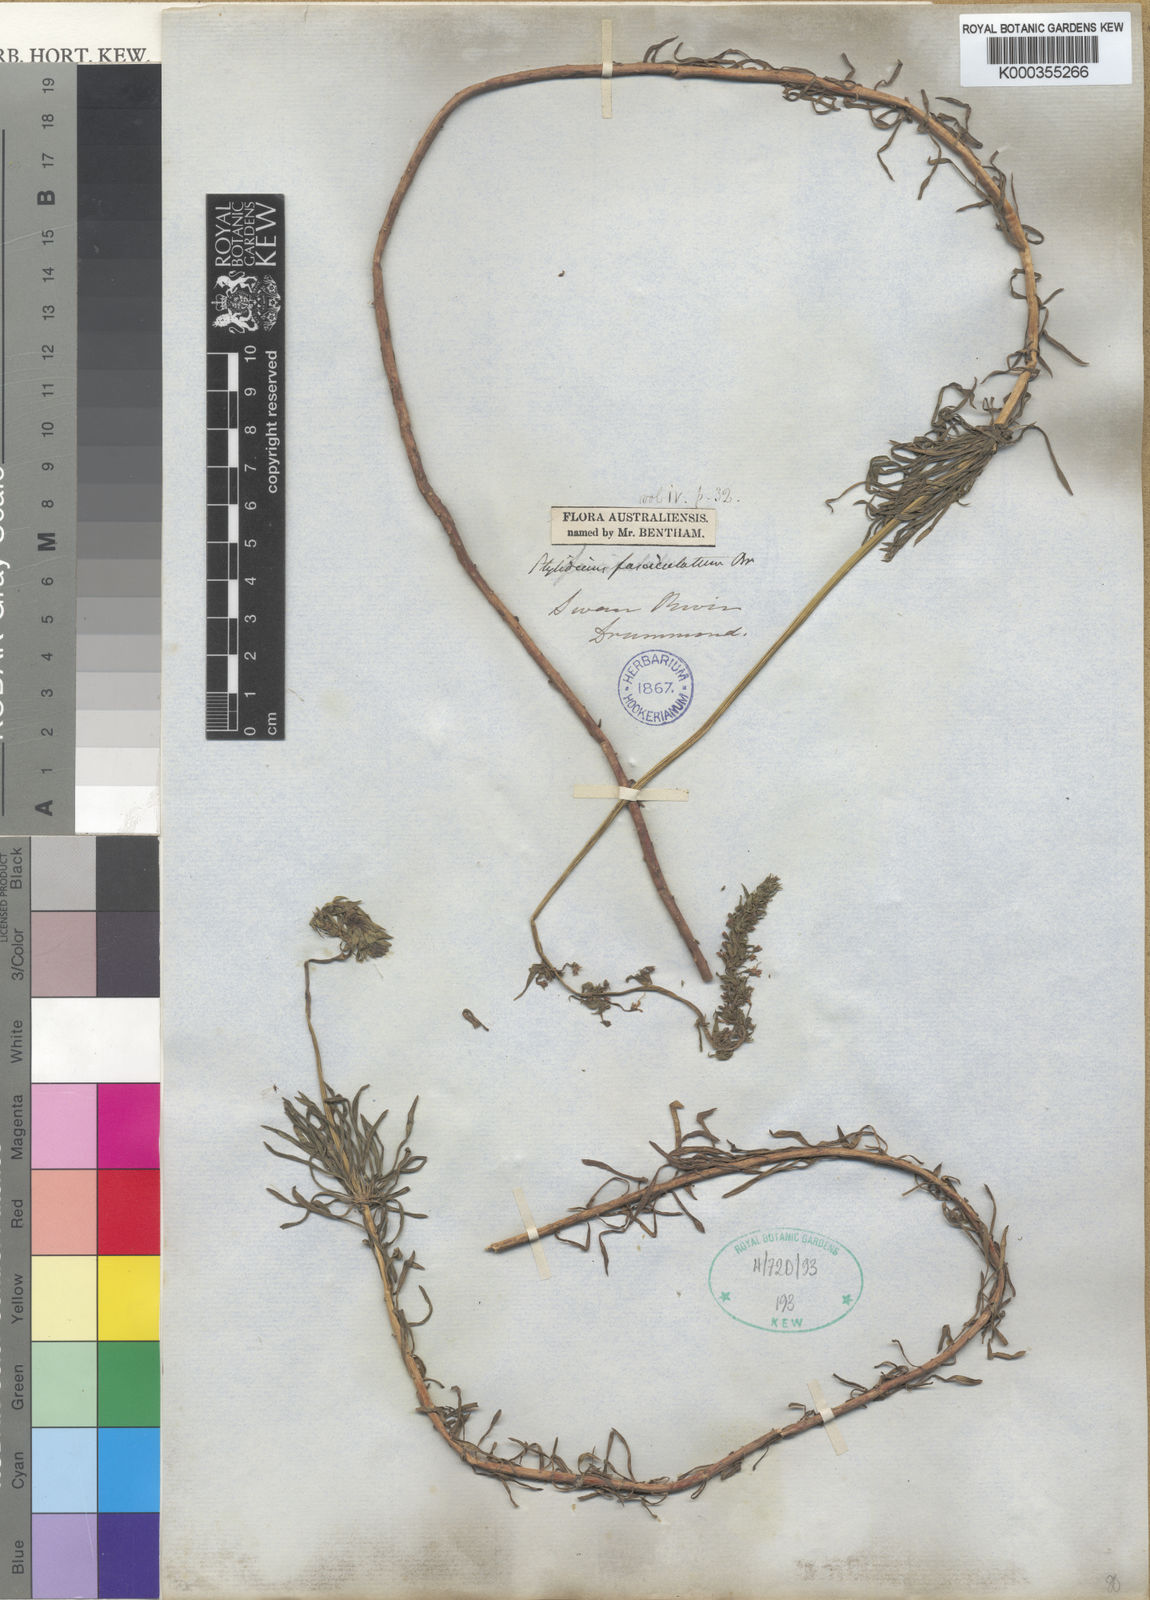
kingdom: Plantae
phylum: Tracheophyta
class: Magnoliopsida
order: Asterales
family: Stylidiaceae
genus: Stylidium
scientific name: Stylidium fasciculatum
